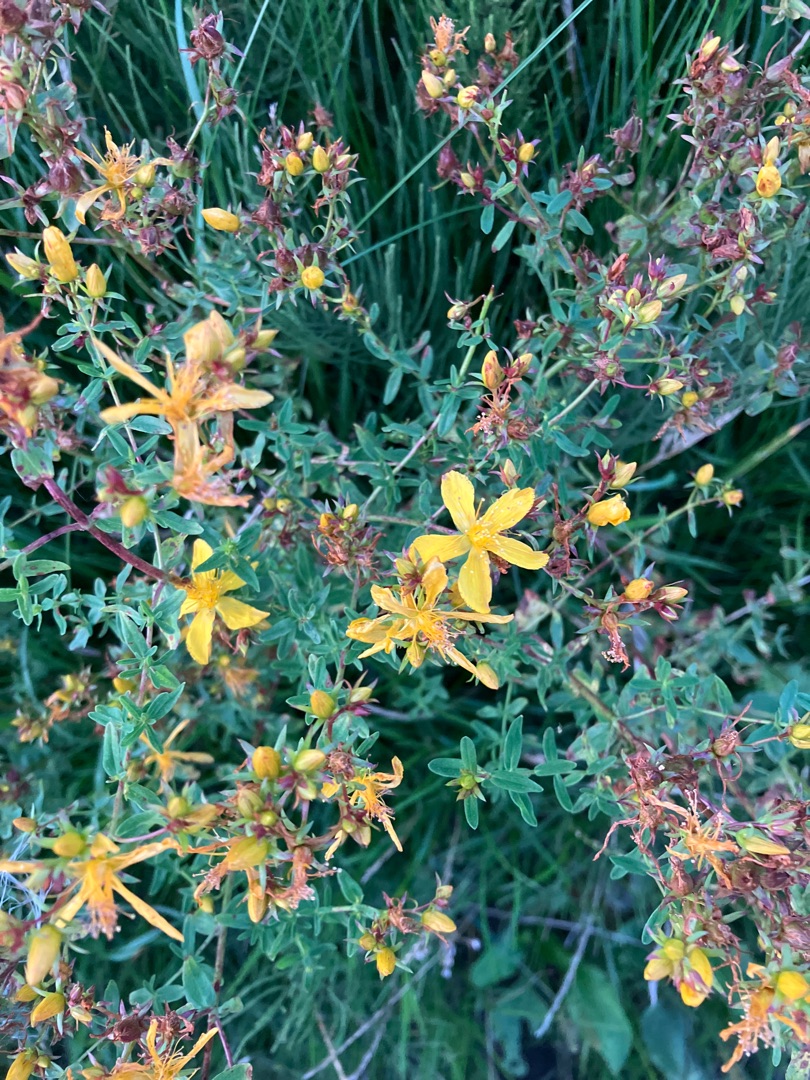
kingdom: Plantae
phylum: Tracheophyta
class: Magnoliopsida
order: Malpighiales
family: Hypericaceae
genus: Hypericum
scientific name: Hypericum perforatum
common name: Prikbladet perikon
